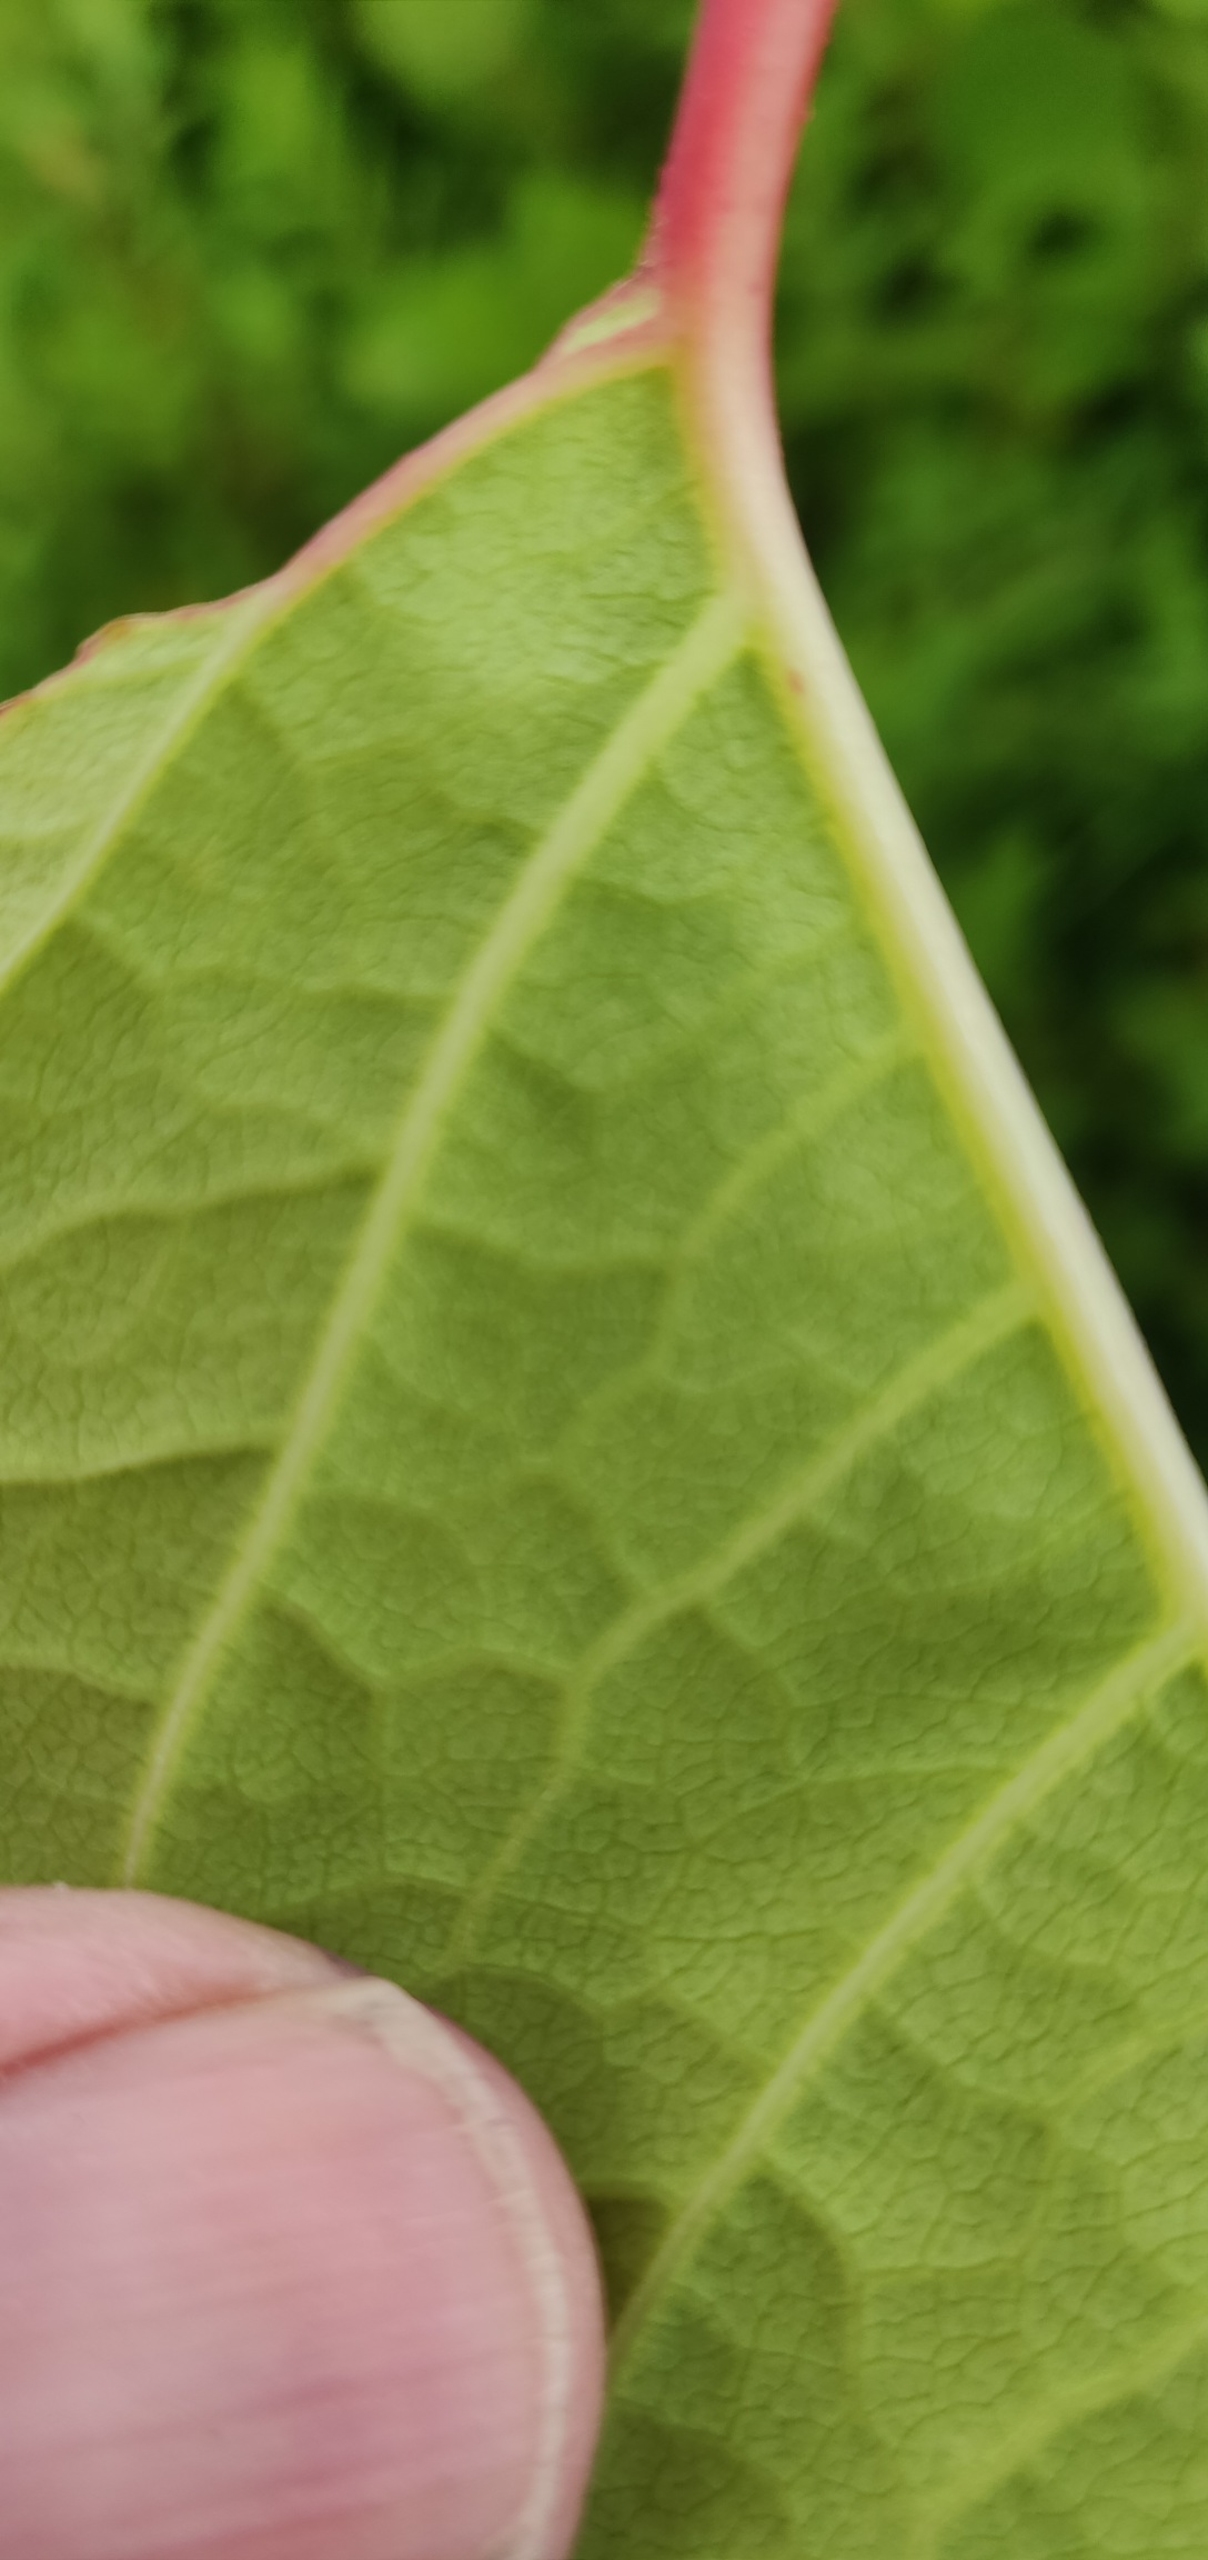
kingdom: Plantae
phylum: Tracheophyta
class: Magnoliopsida
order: Caryophyllales
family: Polygonaceae
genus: Reynoutria
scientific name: Reynoutria japonica
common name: Japan-pileurt
